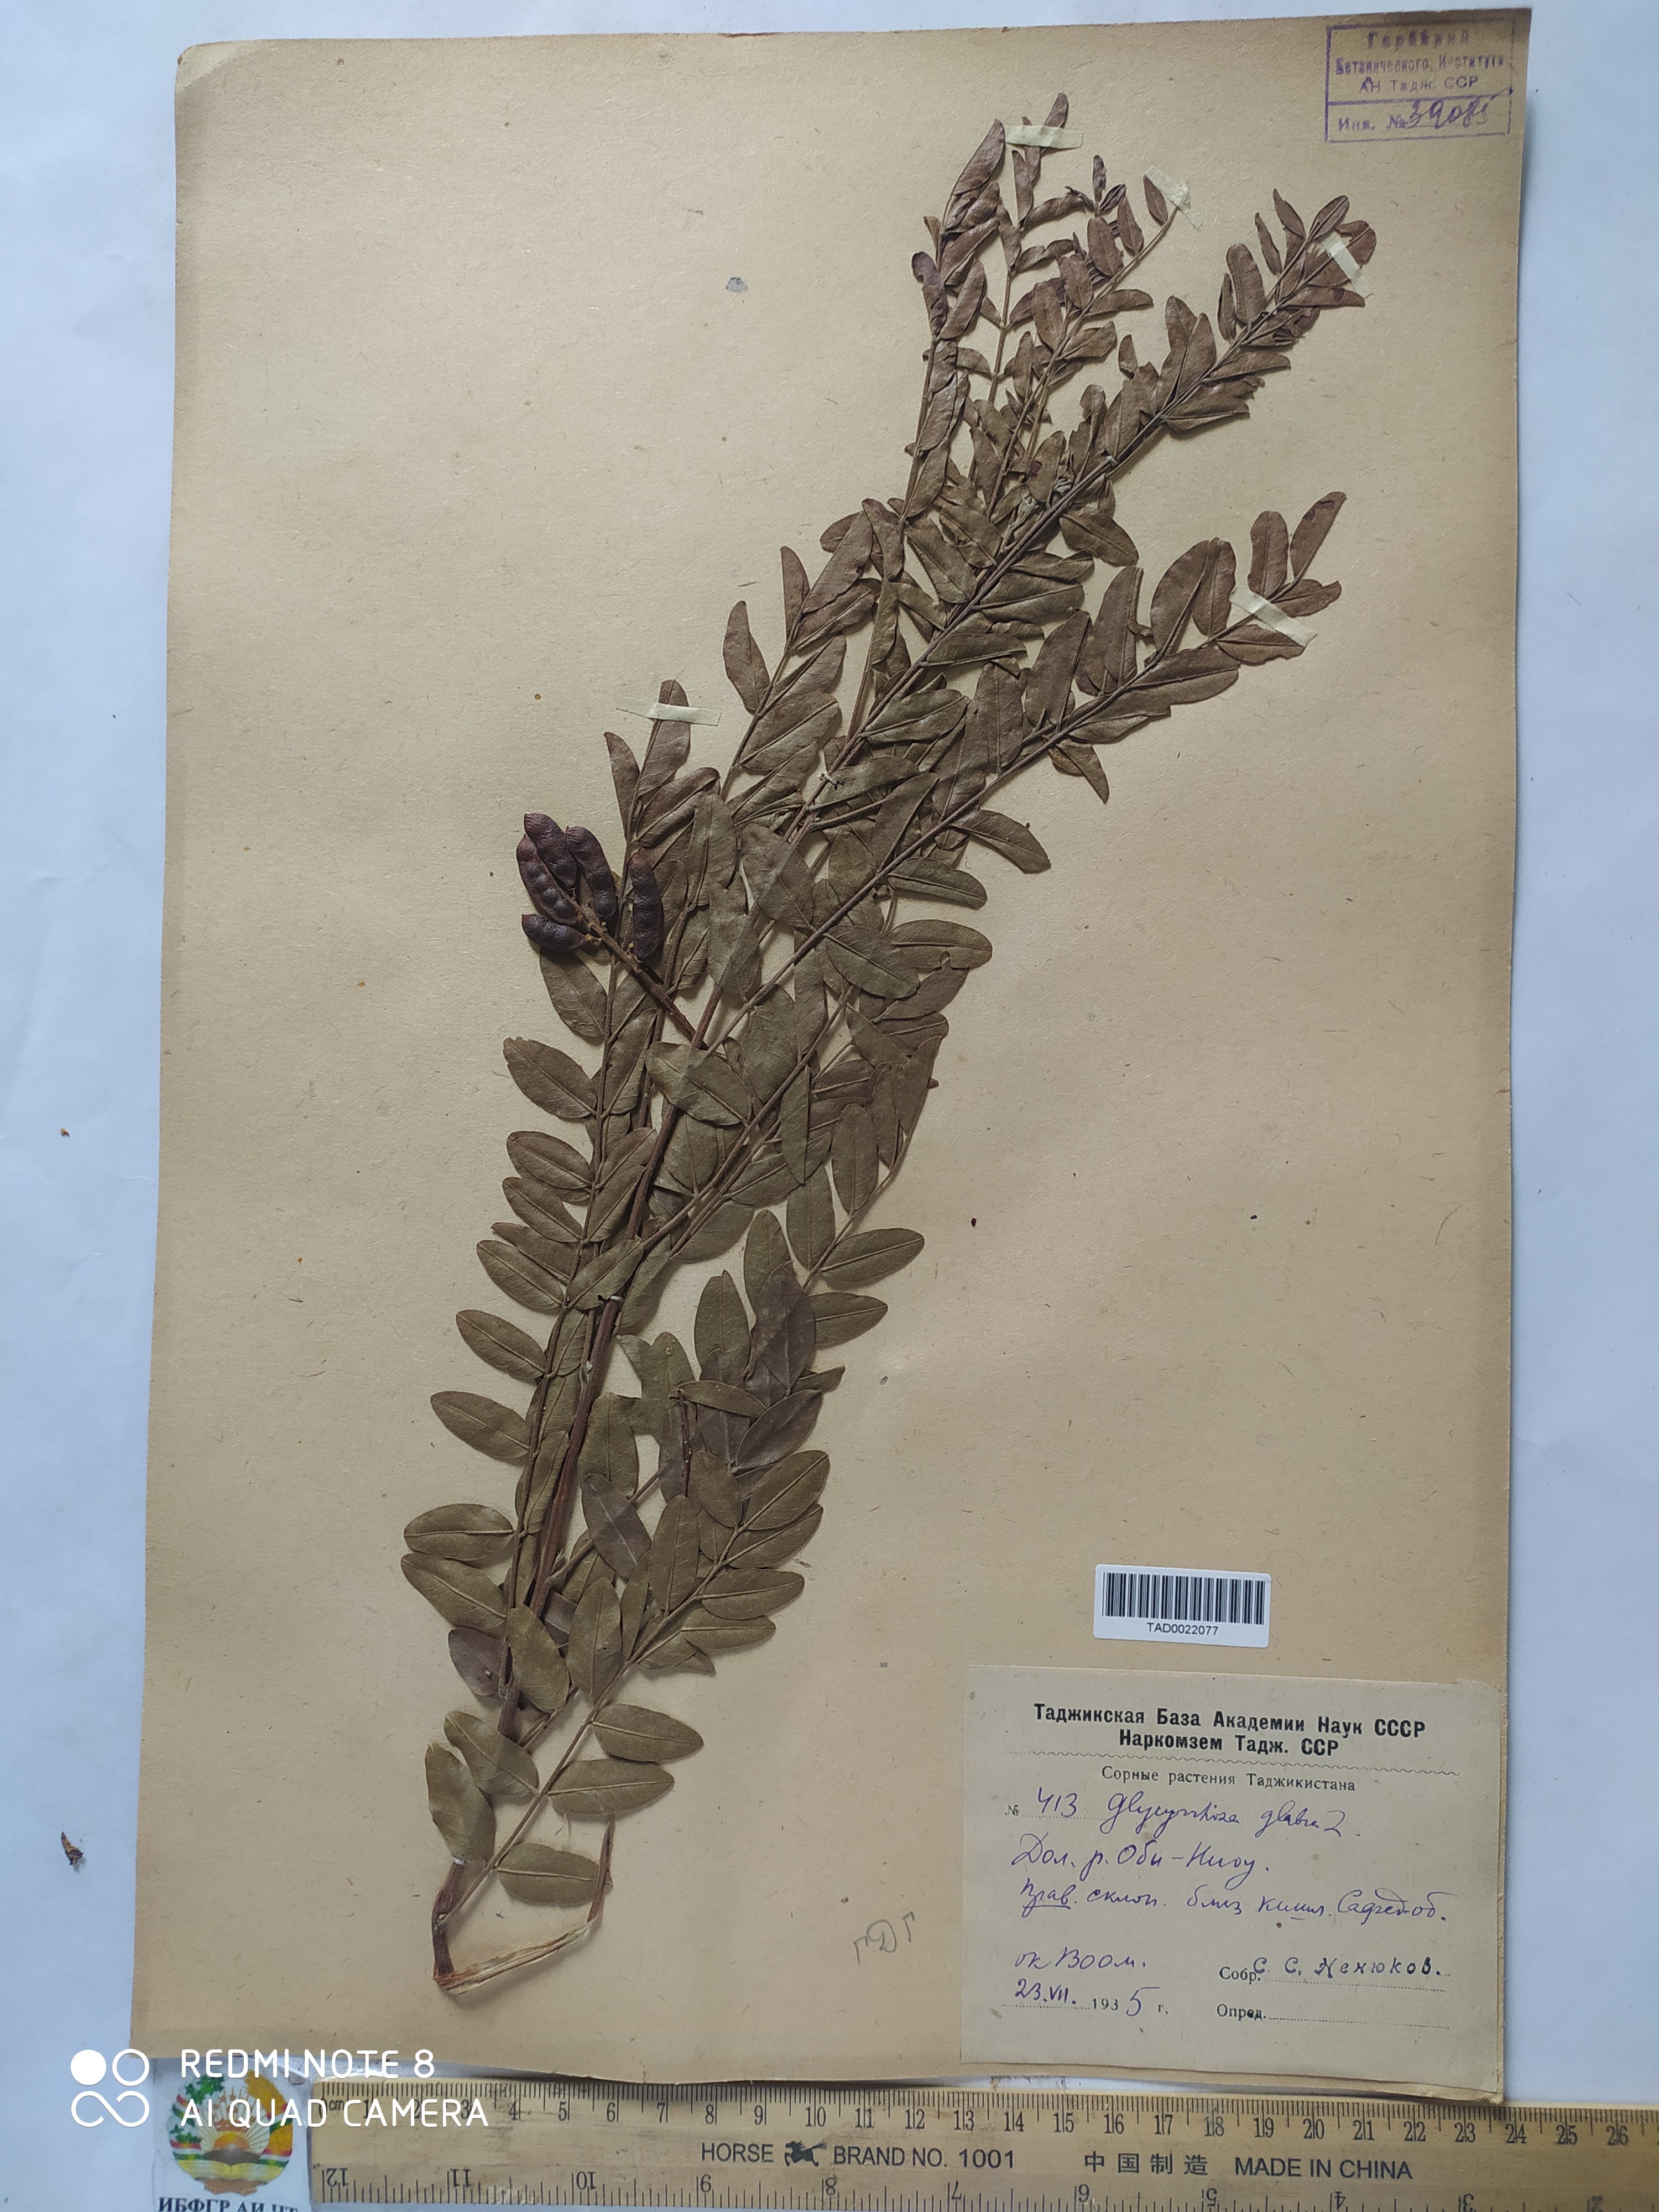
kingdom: Plantae
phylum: Tracheophyta
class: Magnoliopsida
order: Fabales
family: Fabaceae
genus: Glycyrrhiza
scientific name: Glycyrrhiza glabra
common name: Liquorice
